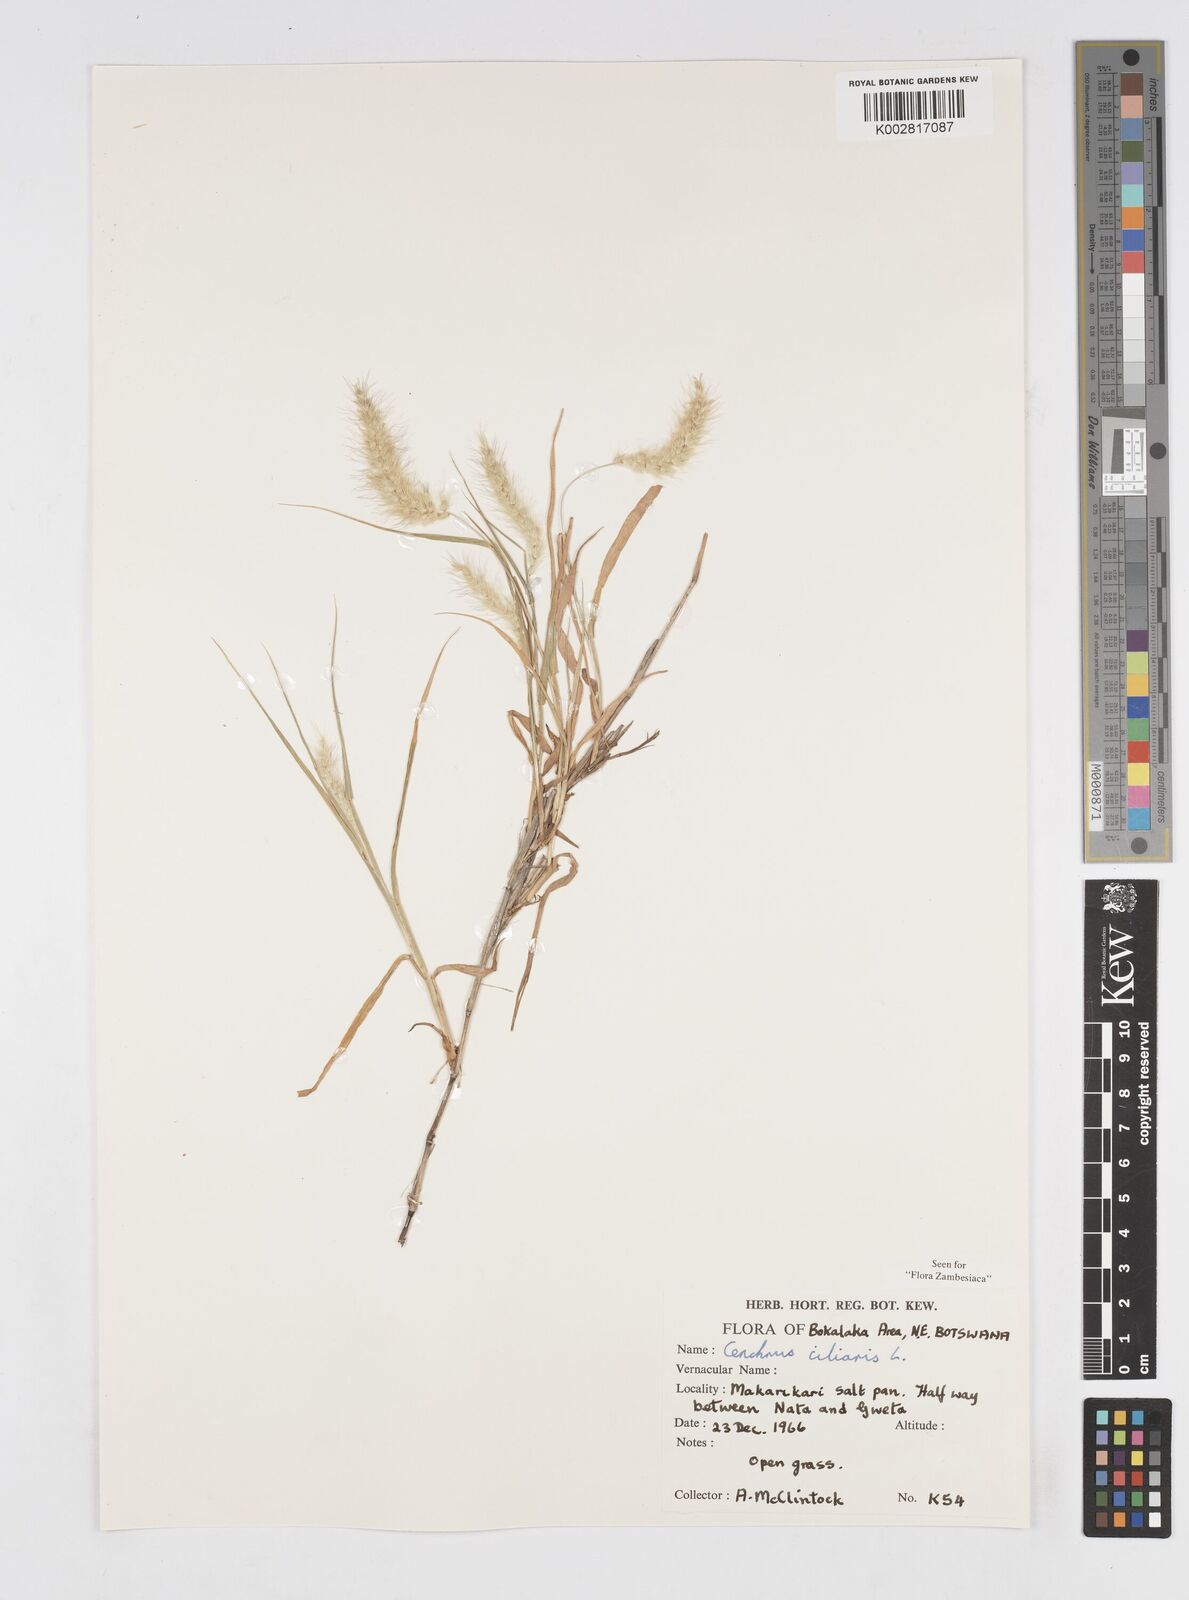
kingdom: Plantae
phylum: Tracheophyta
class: Liliopsida
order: Poales
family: Poaceae
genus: Cenchrus
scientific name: Cenchrus ciliaris
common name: Buffelgrass
